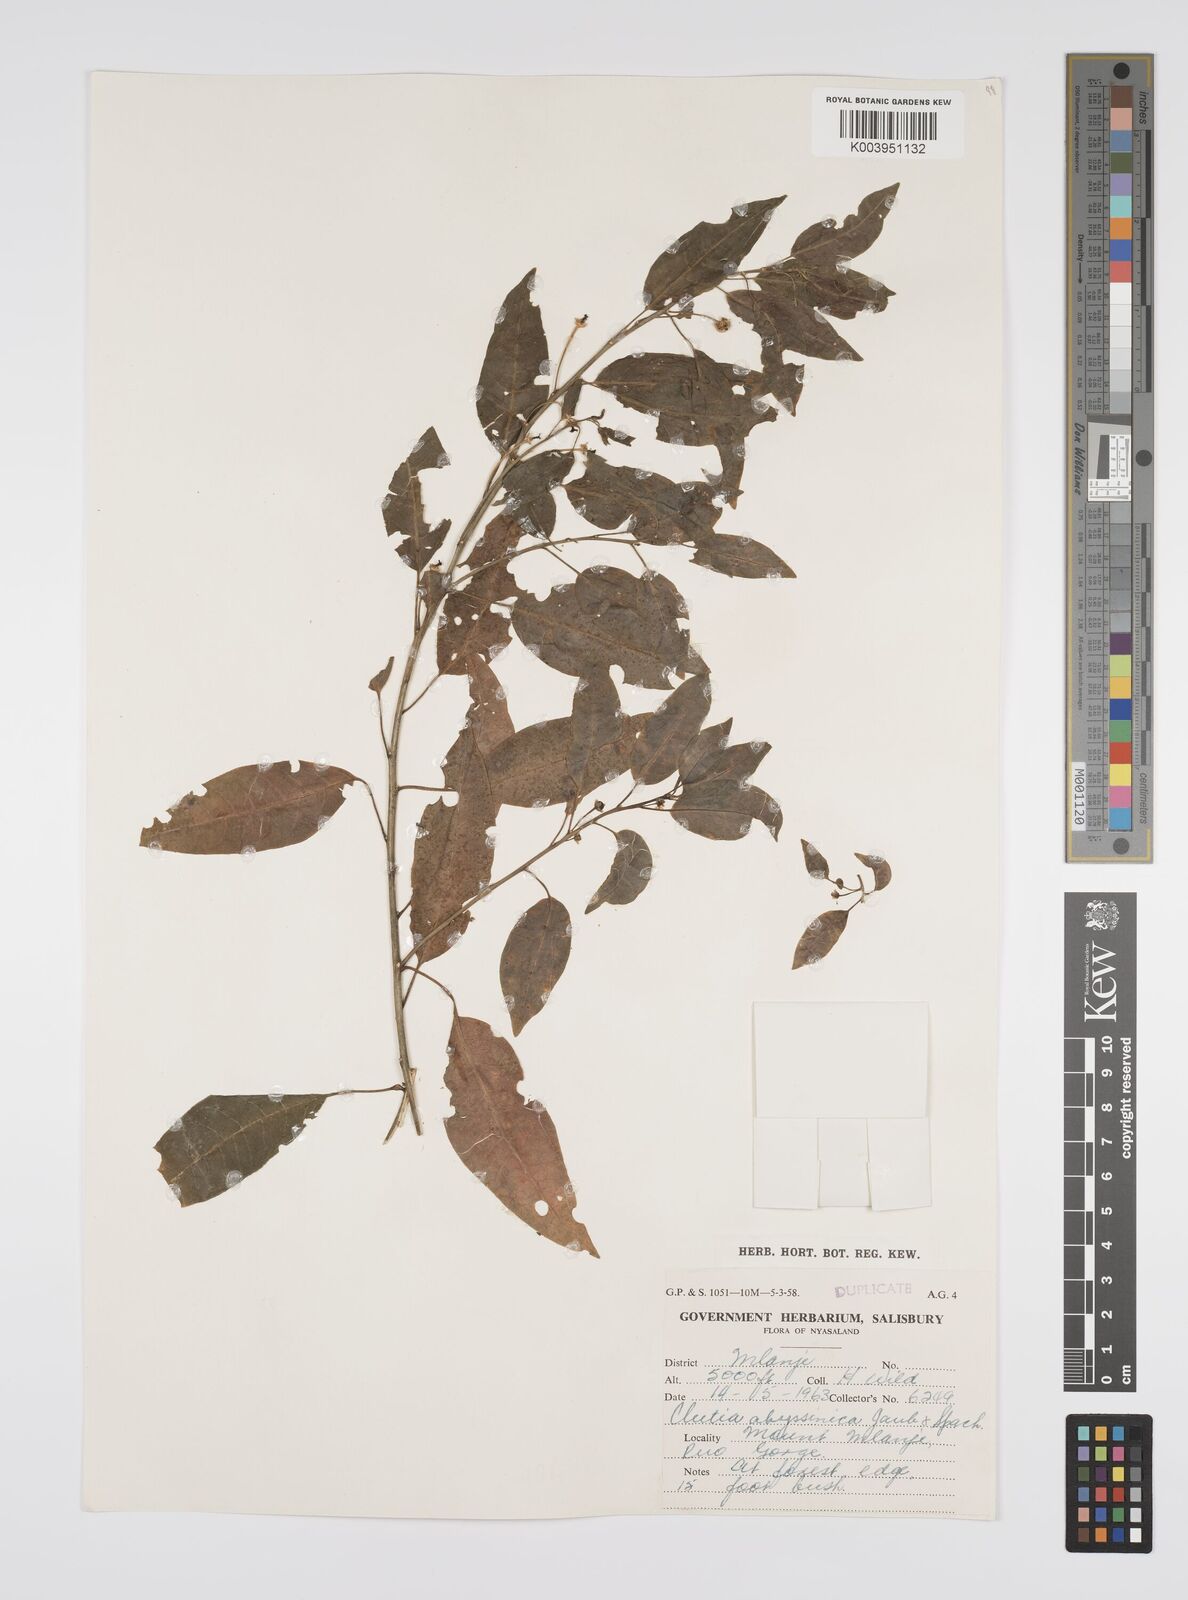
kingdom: Plantae
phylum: Tracheophyta
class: Magnoliopsida
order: Malpighiales
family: Peraceae
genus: Clutia
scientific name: Clutia abyssinica
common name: Large lightning bush
